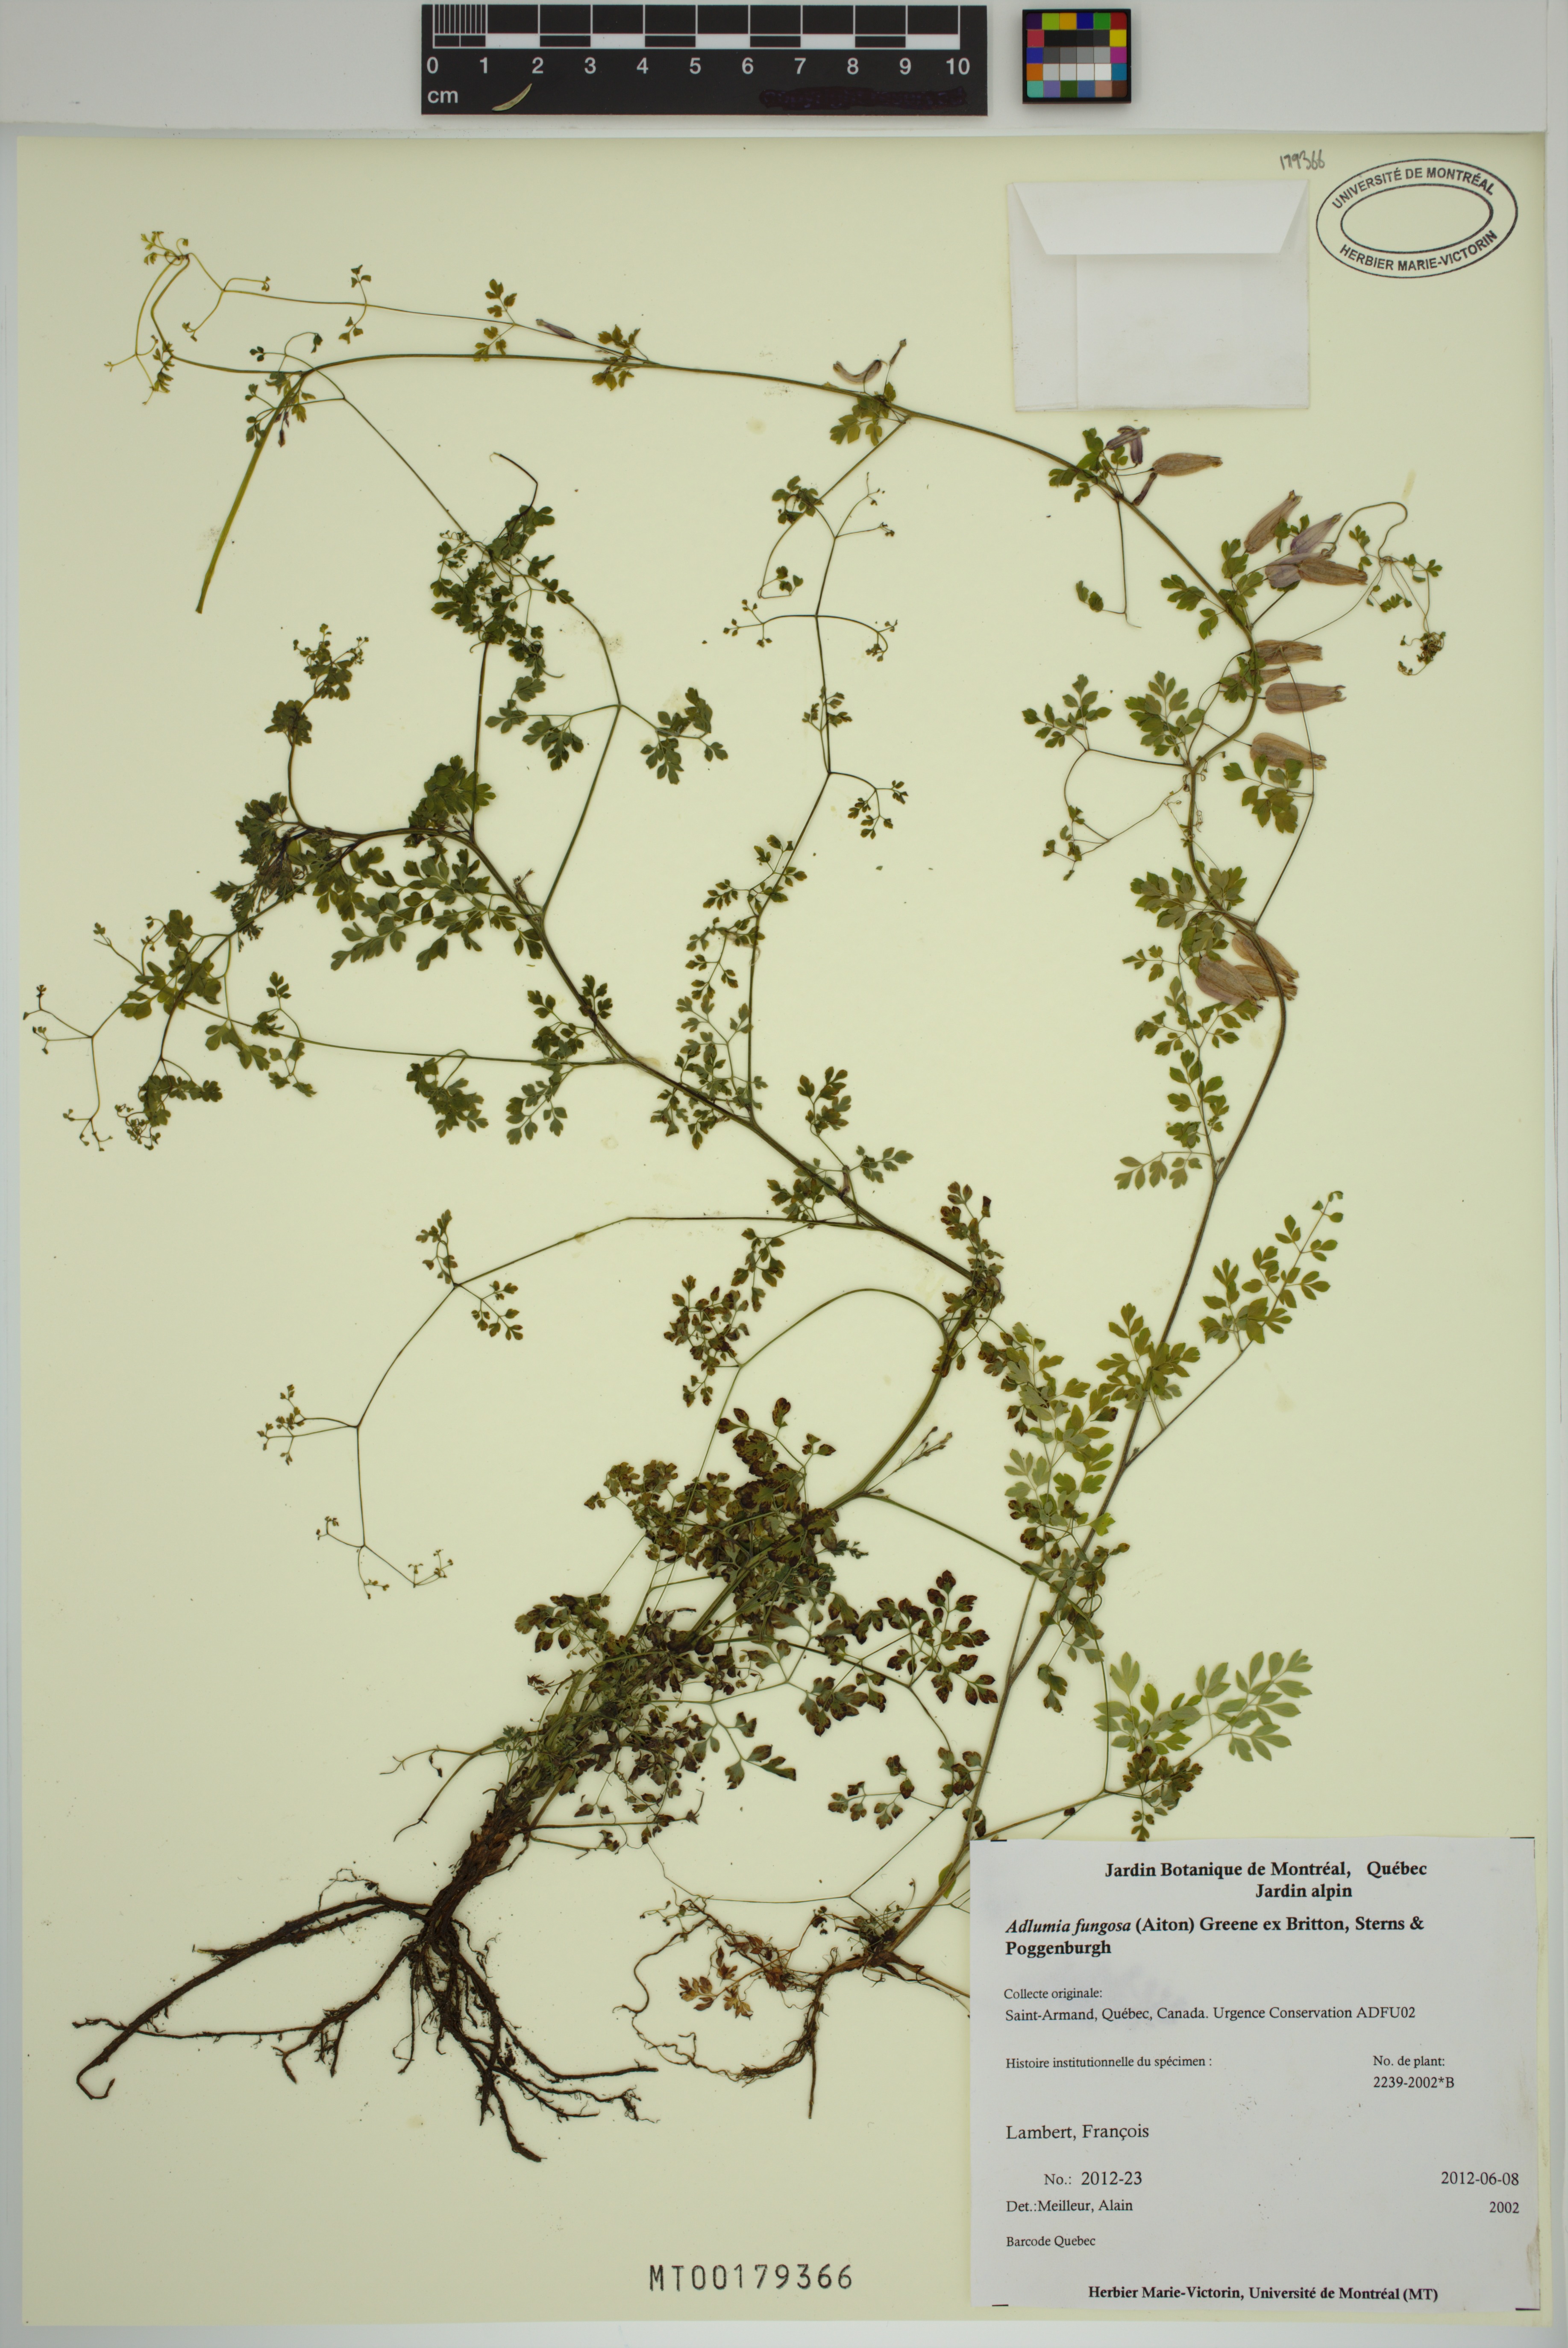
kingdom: Plantae
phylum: Tracheophyta
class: Magnoliopsida
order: Ranunculales
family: Papaveraceae
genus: Adlumia
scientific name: Adlumia fungosa
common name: Mountain-fringe
